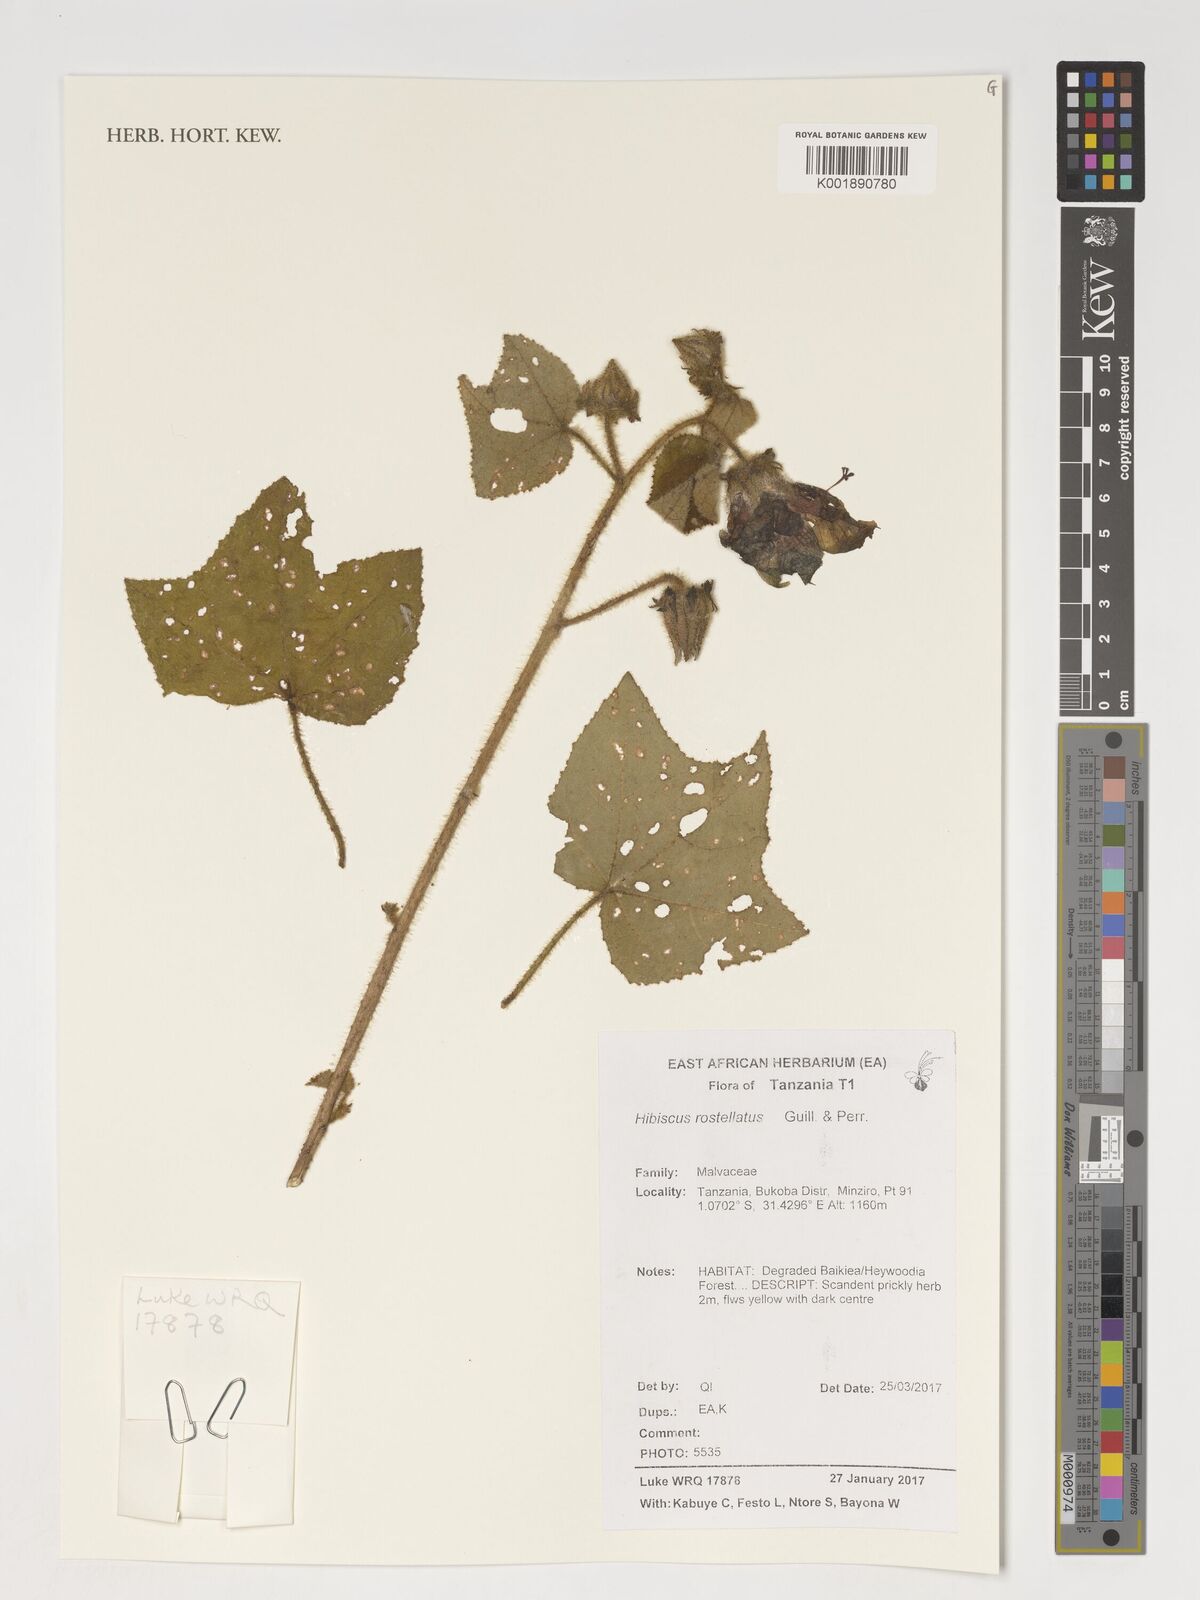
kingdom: Plantae
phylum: Tracheophyta
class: Magnoliopsida
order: Malvales
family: Malvaceae
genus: Hibiscus
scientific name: Hibiscus rostellatus
